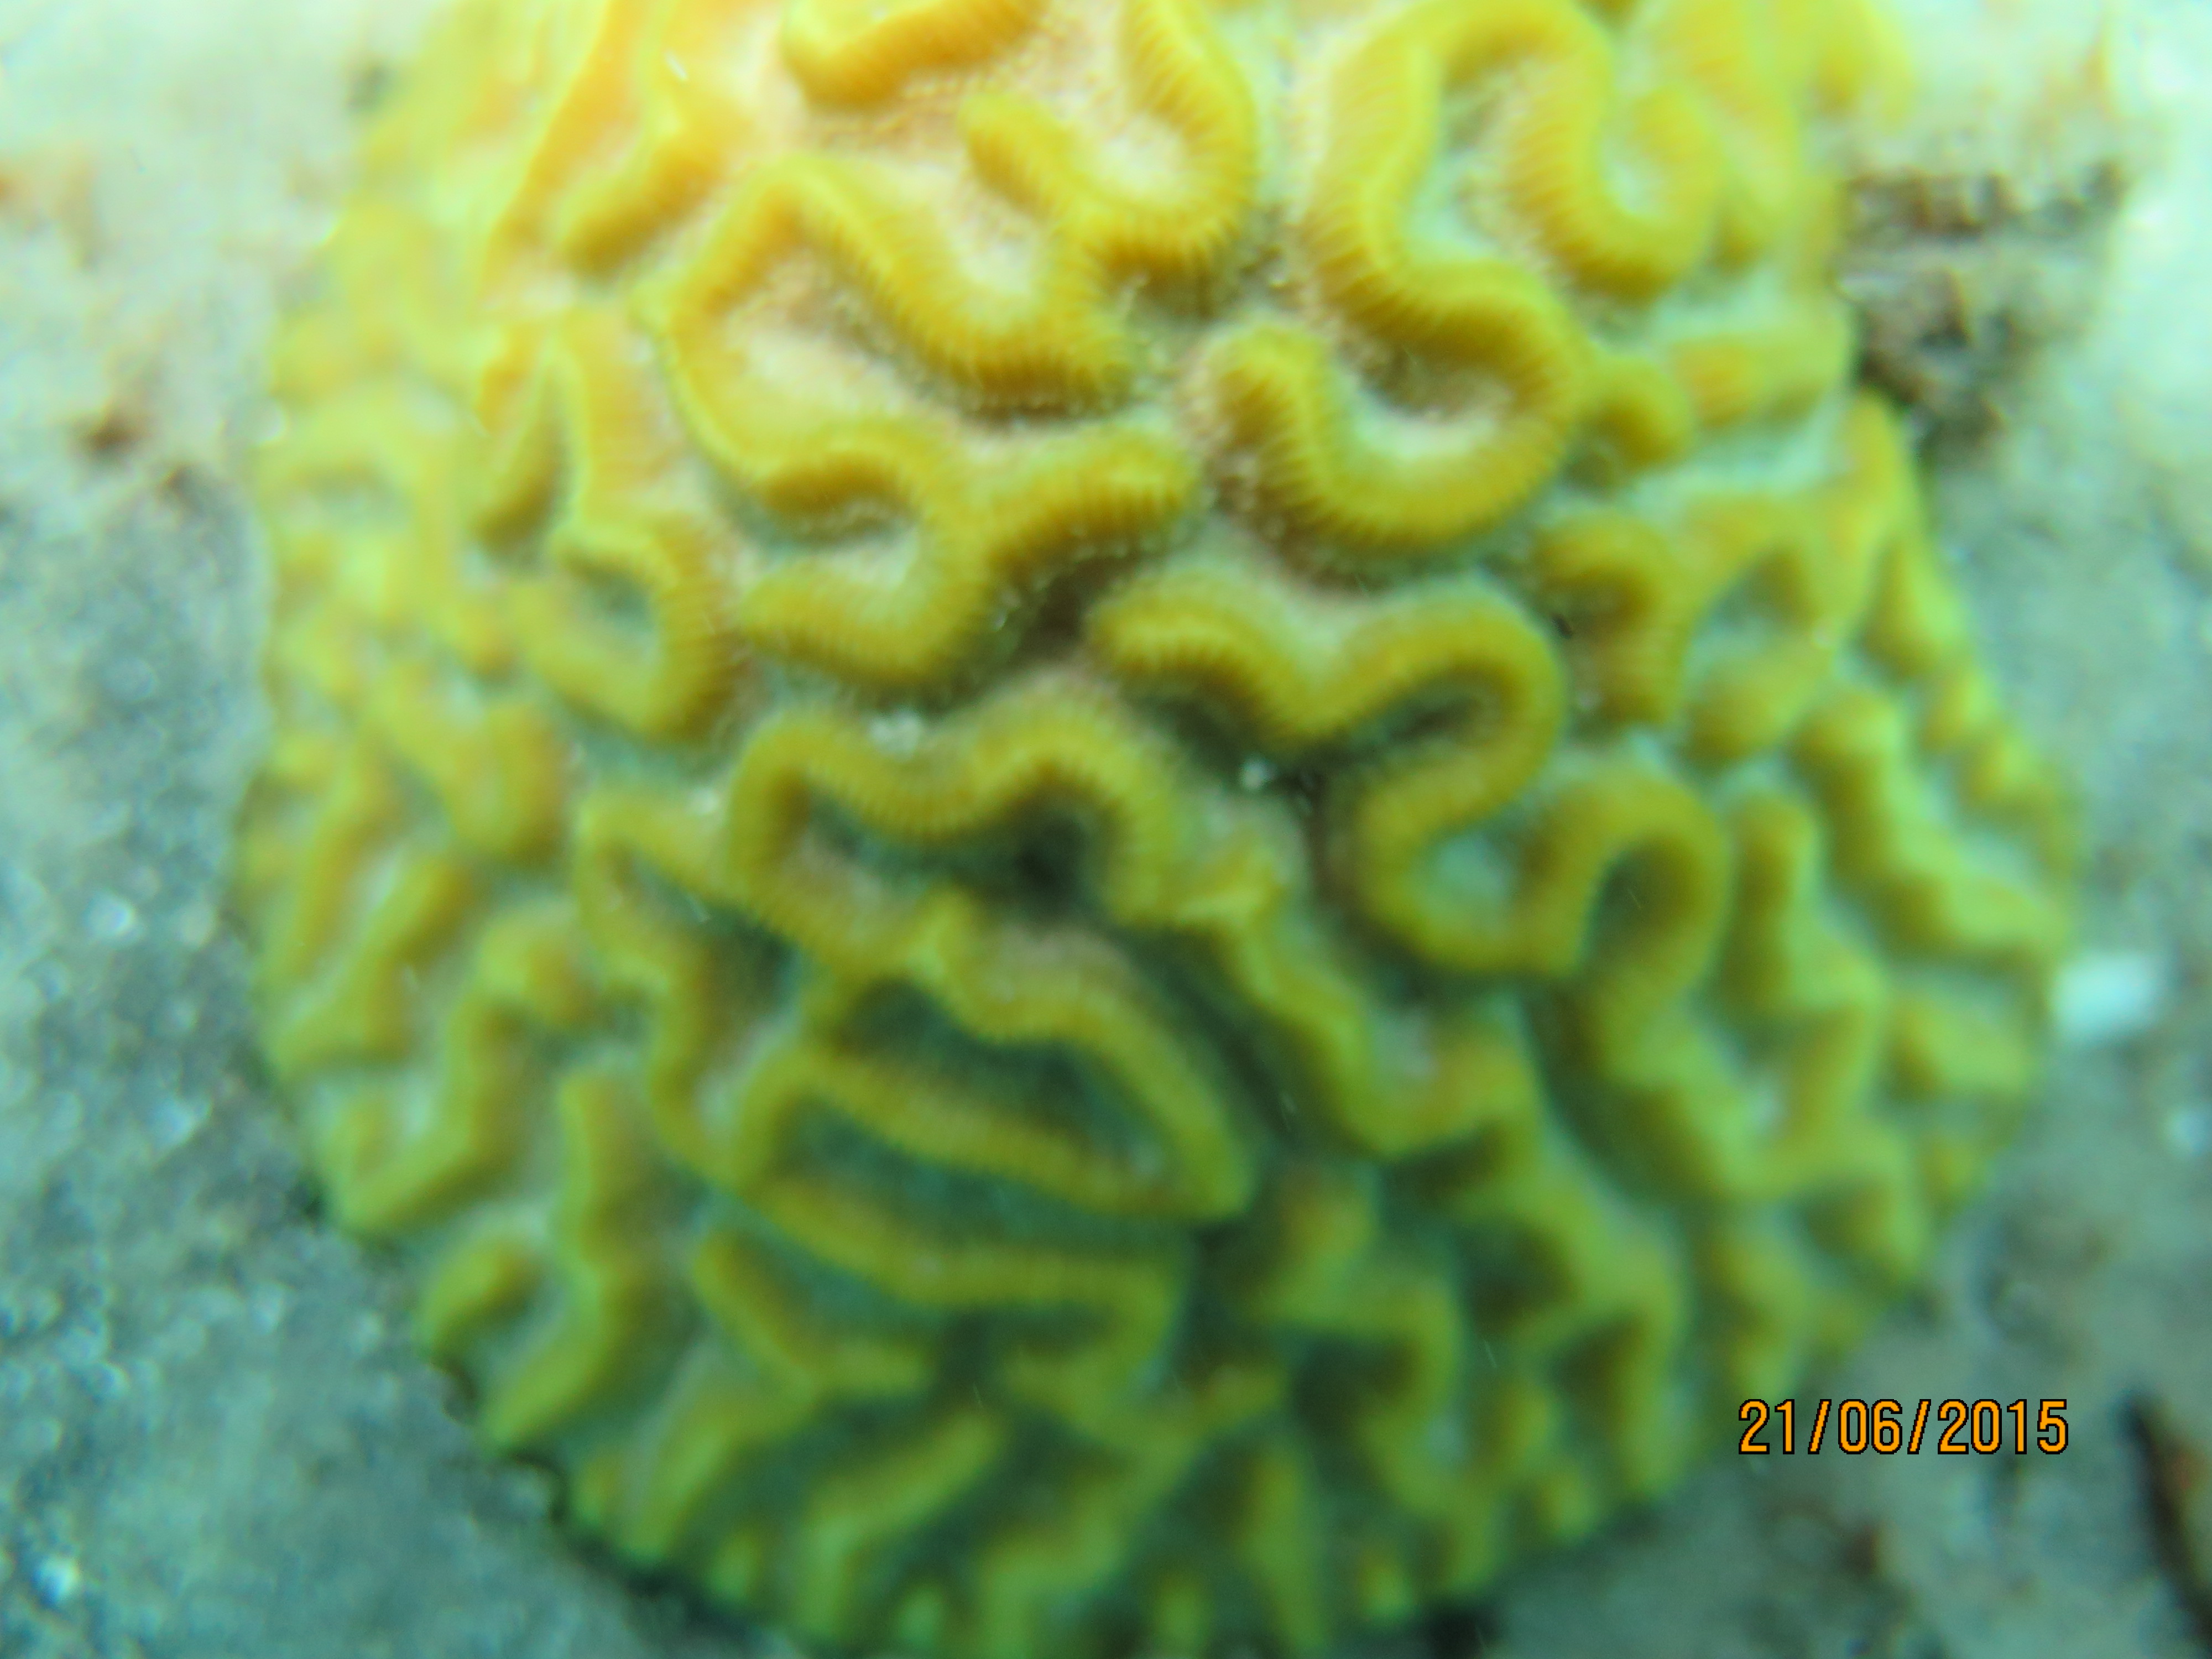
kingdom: Animalia
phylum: Cnidaria
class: Anthozoa
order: Scleractinia
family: Poritidae
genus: Porites
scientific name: Porites astreoides
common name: Mustard hill coral
